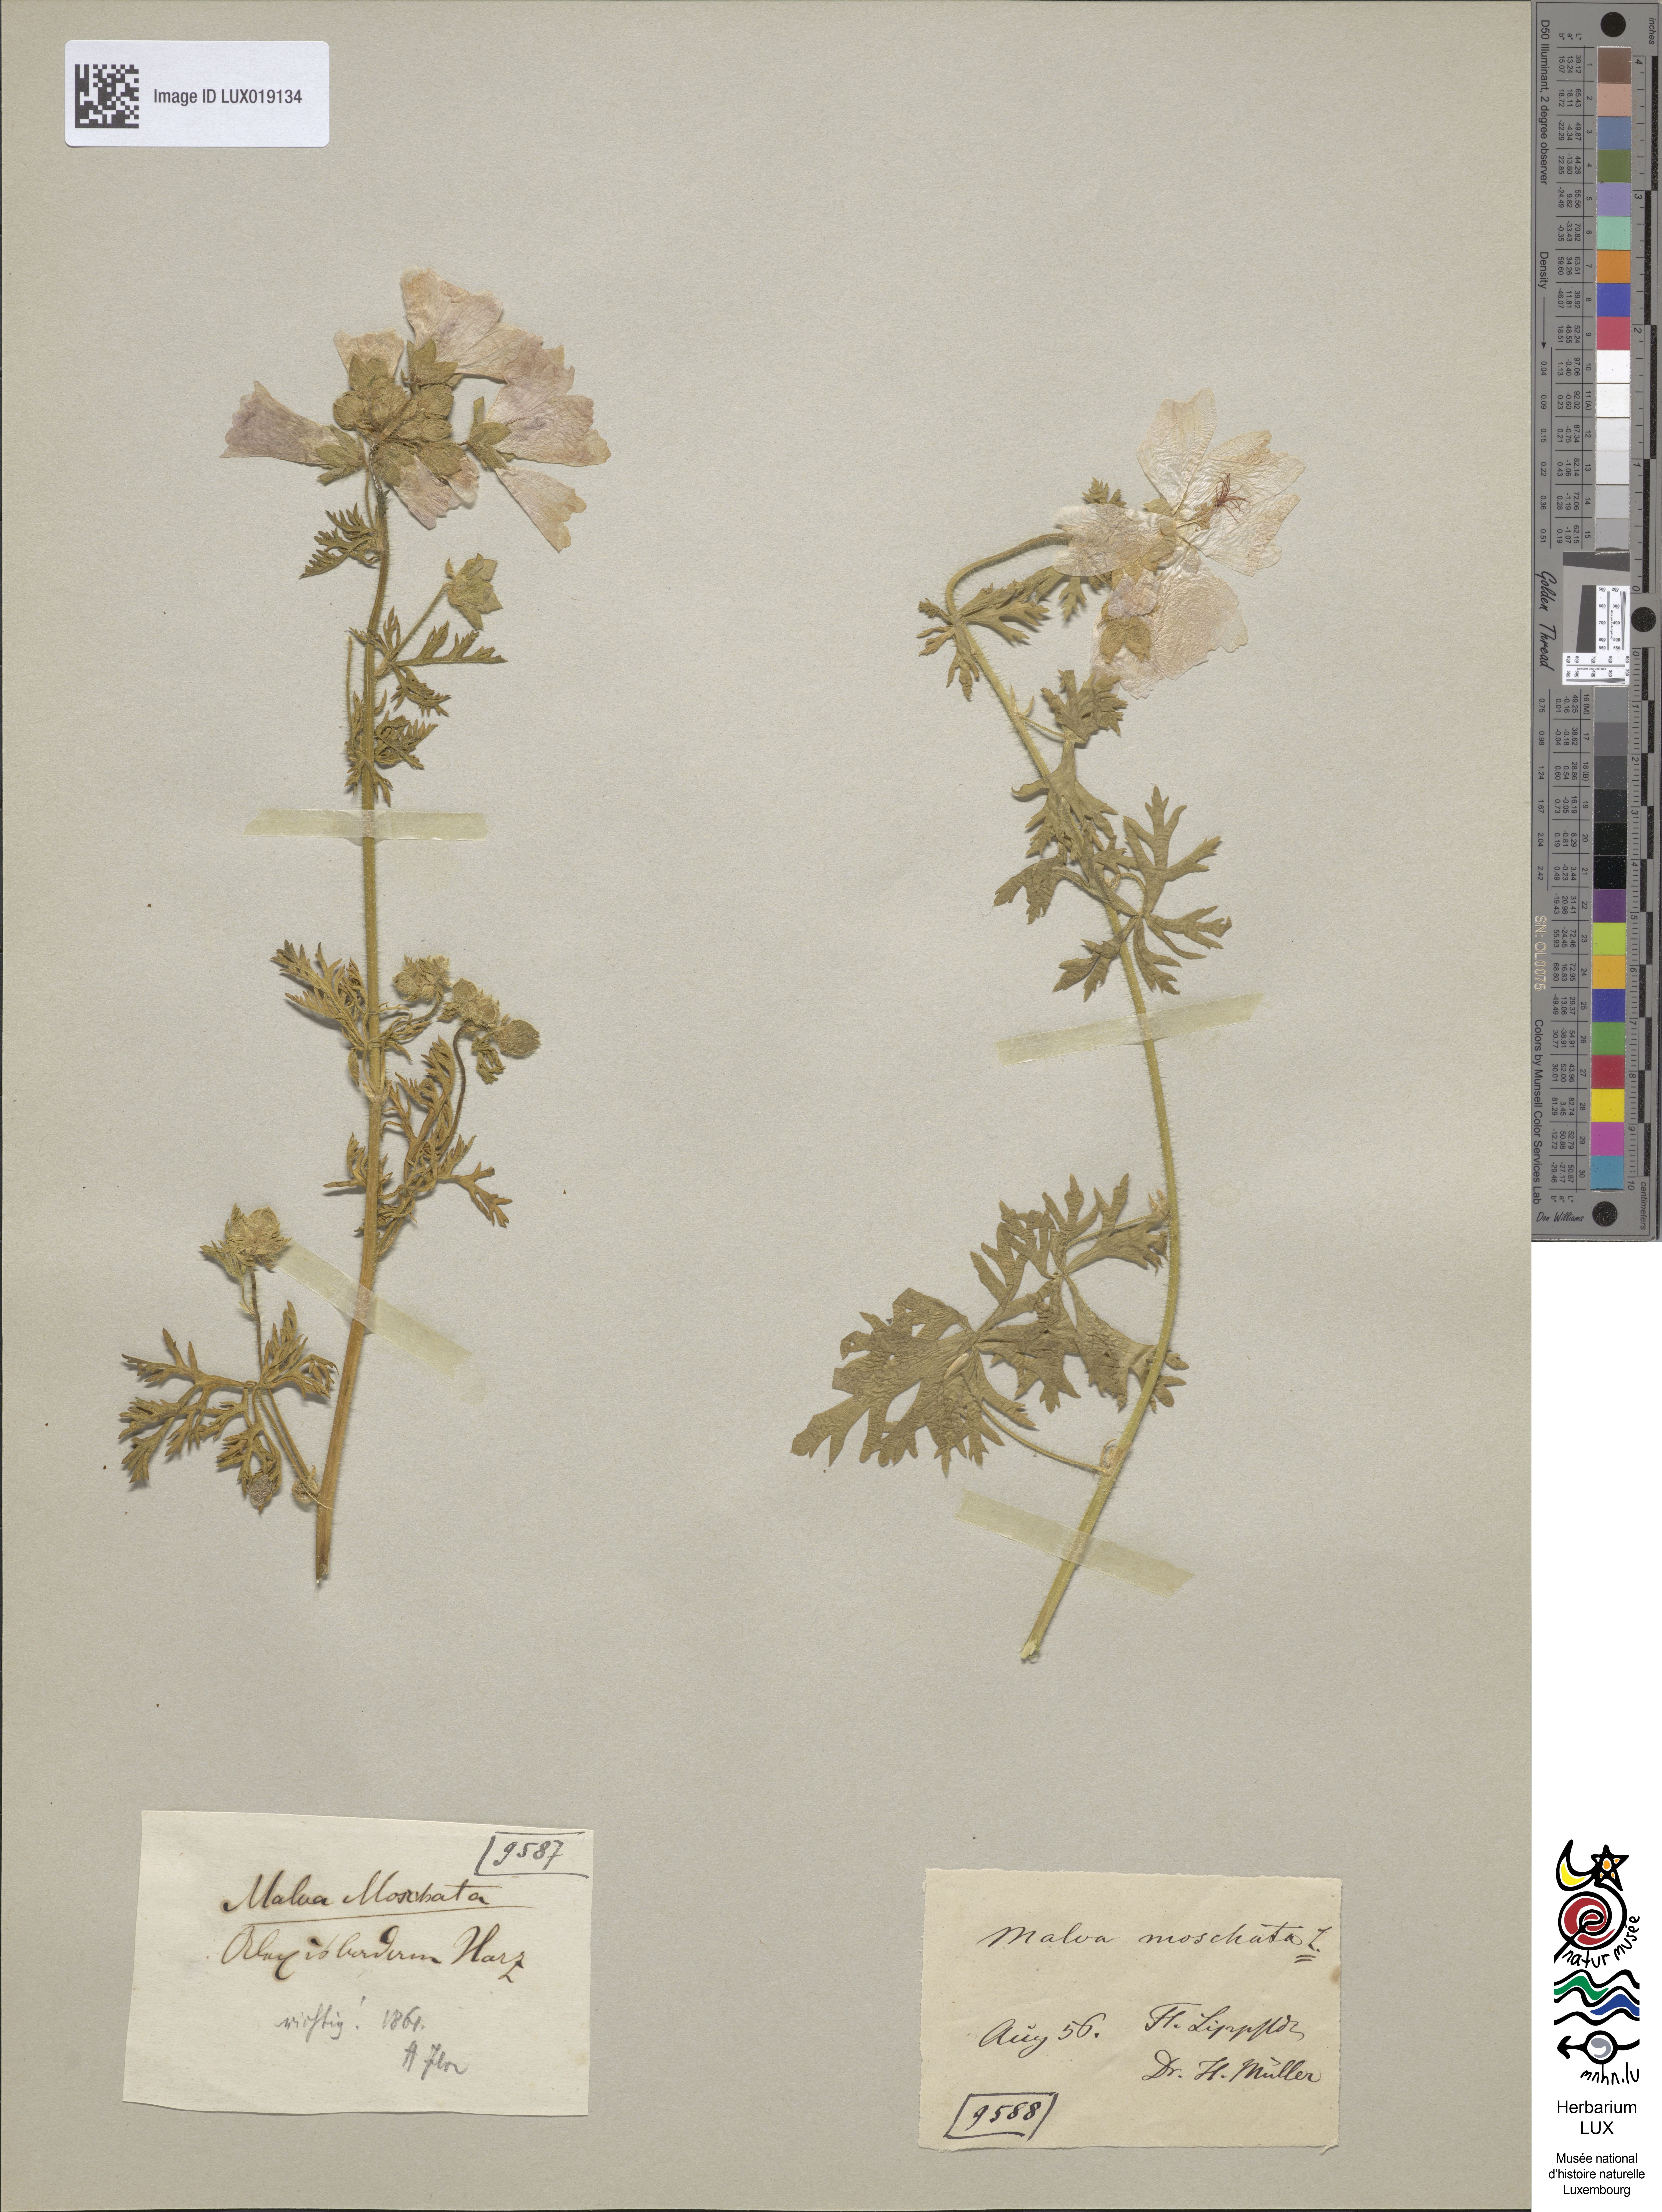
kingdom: Plantae
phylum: Tracheophyta
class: Magnoliopsida
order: Malvales
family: Malvaceae
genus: Malva
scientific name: Malva moschata
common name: Musk mallow
